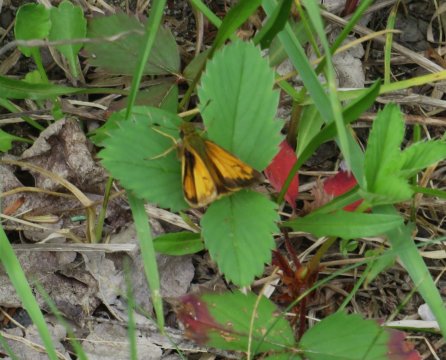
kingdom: Animalia
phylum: Arthropoda
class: Insecta
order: Lepidoptera
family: Hesperiidae
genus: Lon
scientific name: Lon hobomok
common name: Hobomok Skipper
